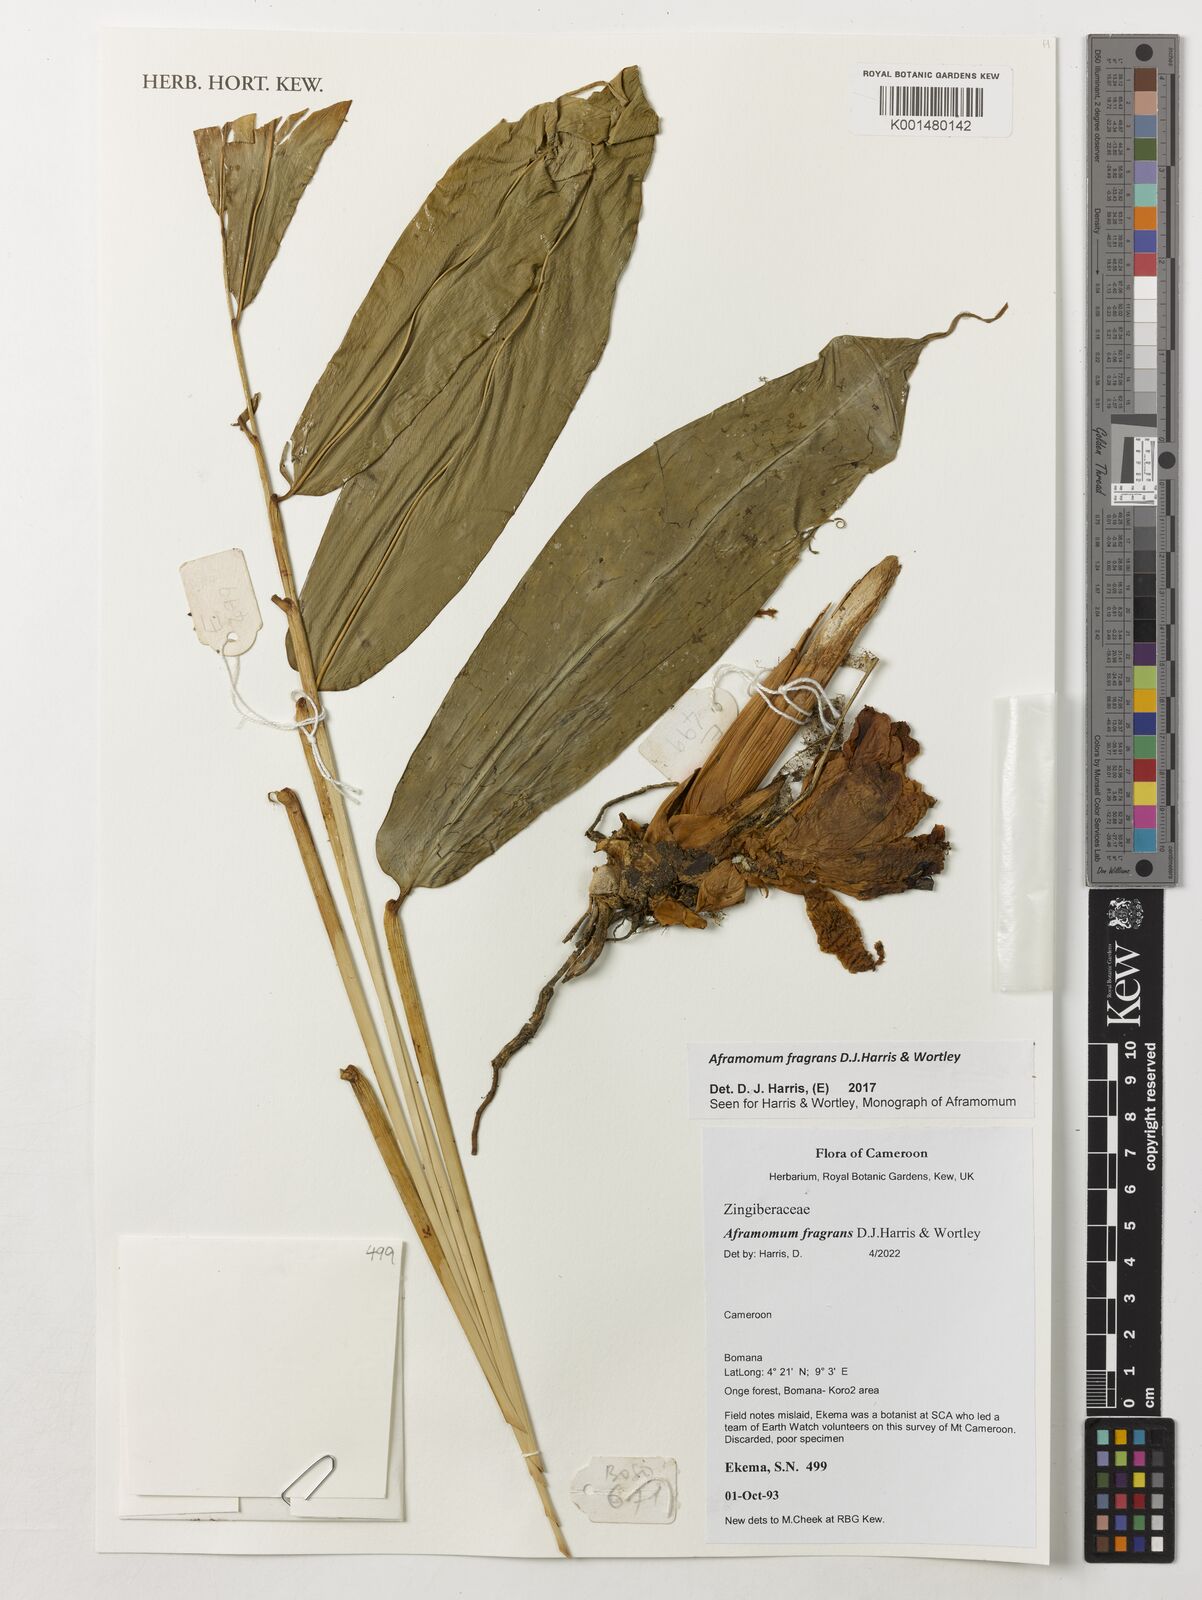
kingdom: Plantae
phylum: Tracheophyta
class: Liliopsida
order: Zingiberales
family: Zingiberaceae
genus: Aframomum
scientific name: Aframomum fragrans
